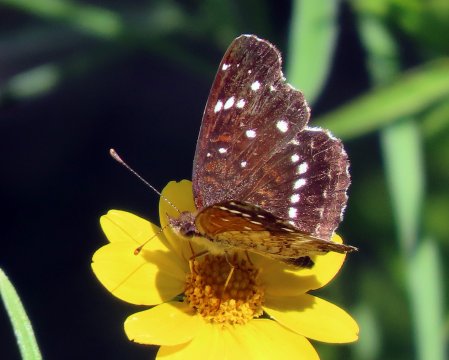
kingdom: Animalia
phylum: Arthropoda
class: Insecta
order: Lepidoptera
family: Nymphalidae
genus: Anthanassa
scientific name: Anthanassa texana
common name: Texan Crescent
